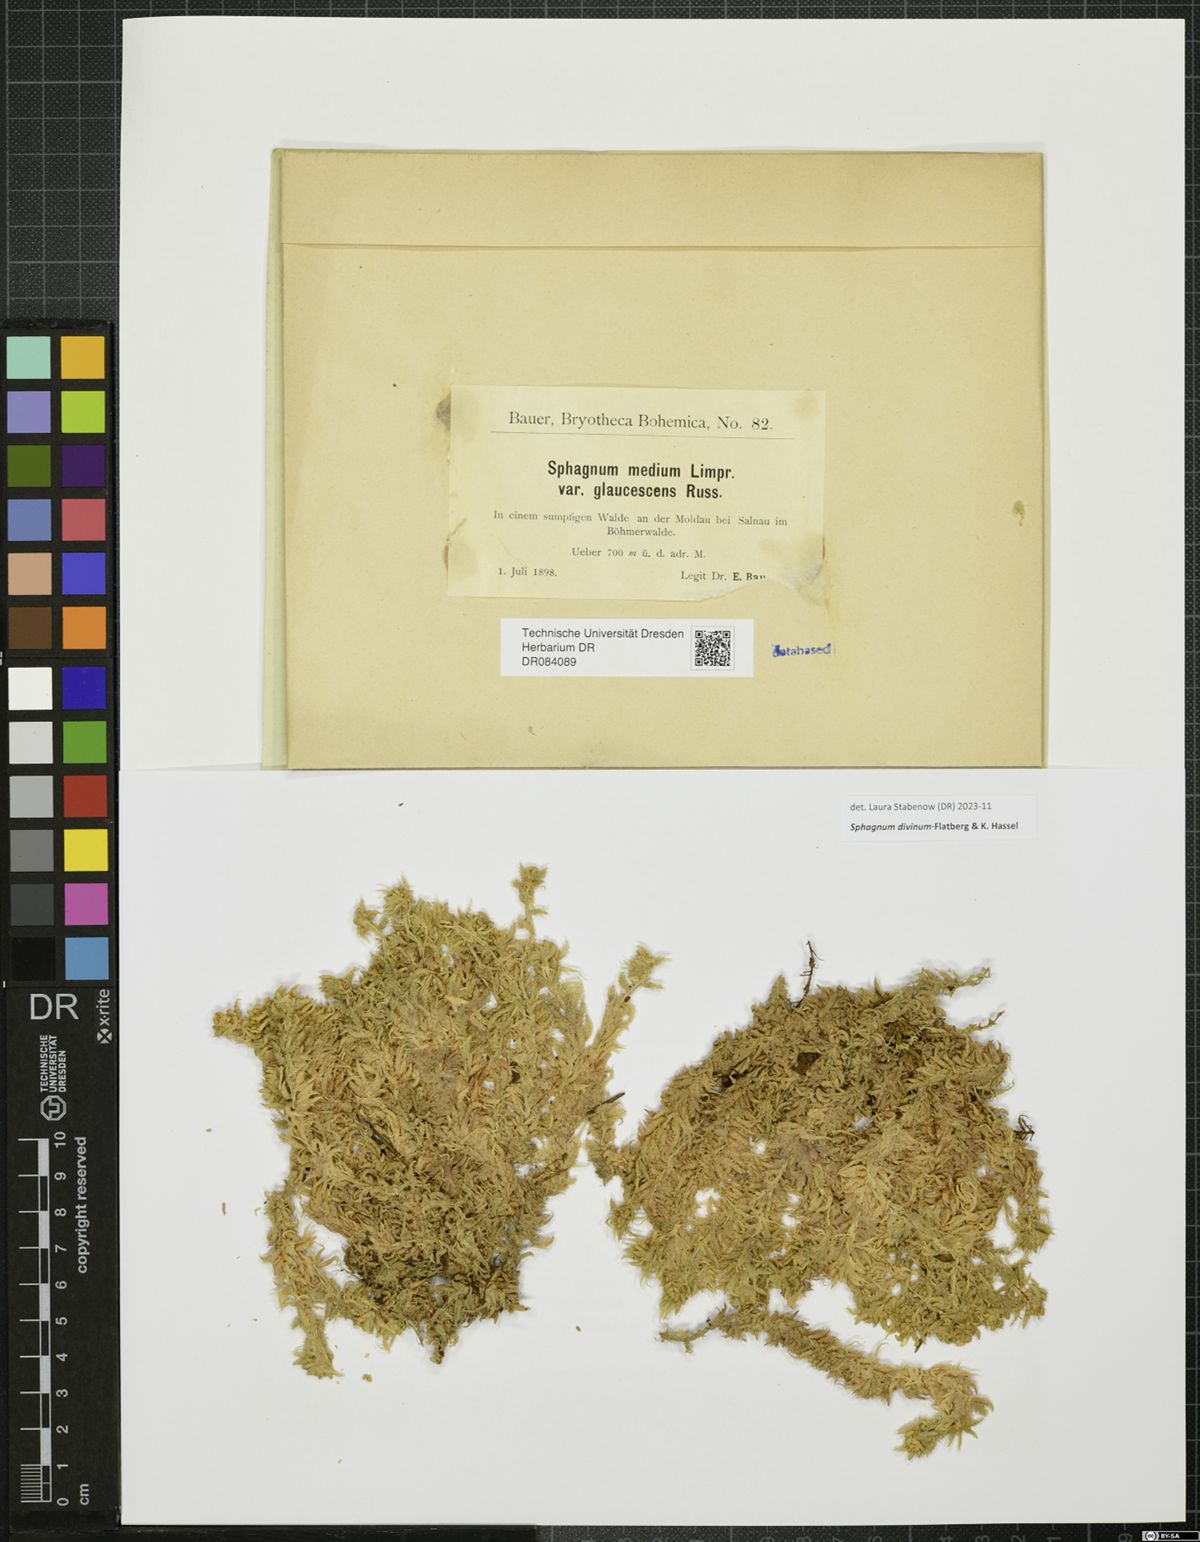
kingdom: Plantae
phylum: Bryophyta
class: Sphagnopsida
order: Sphagnales
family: Sphagnaceae
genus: Sphagnum
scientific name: Sphagnum divinum
